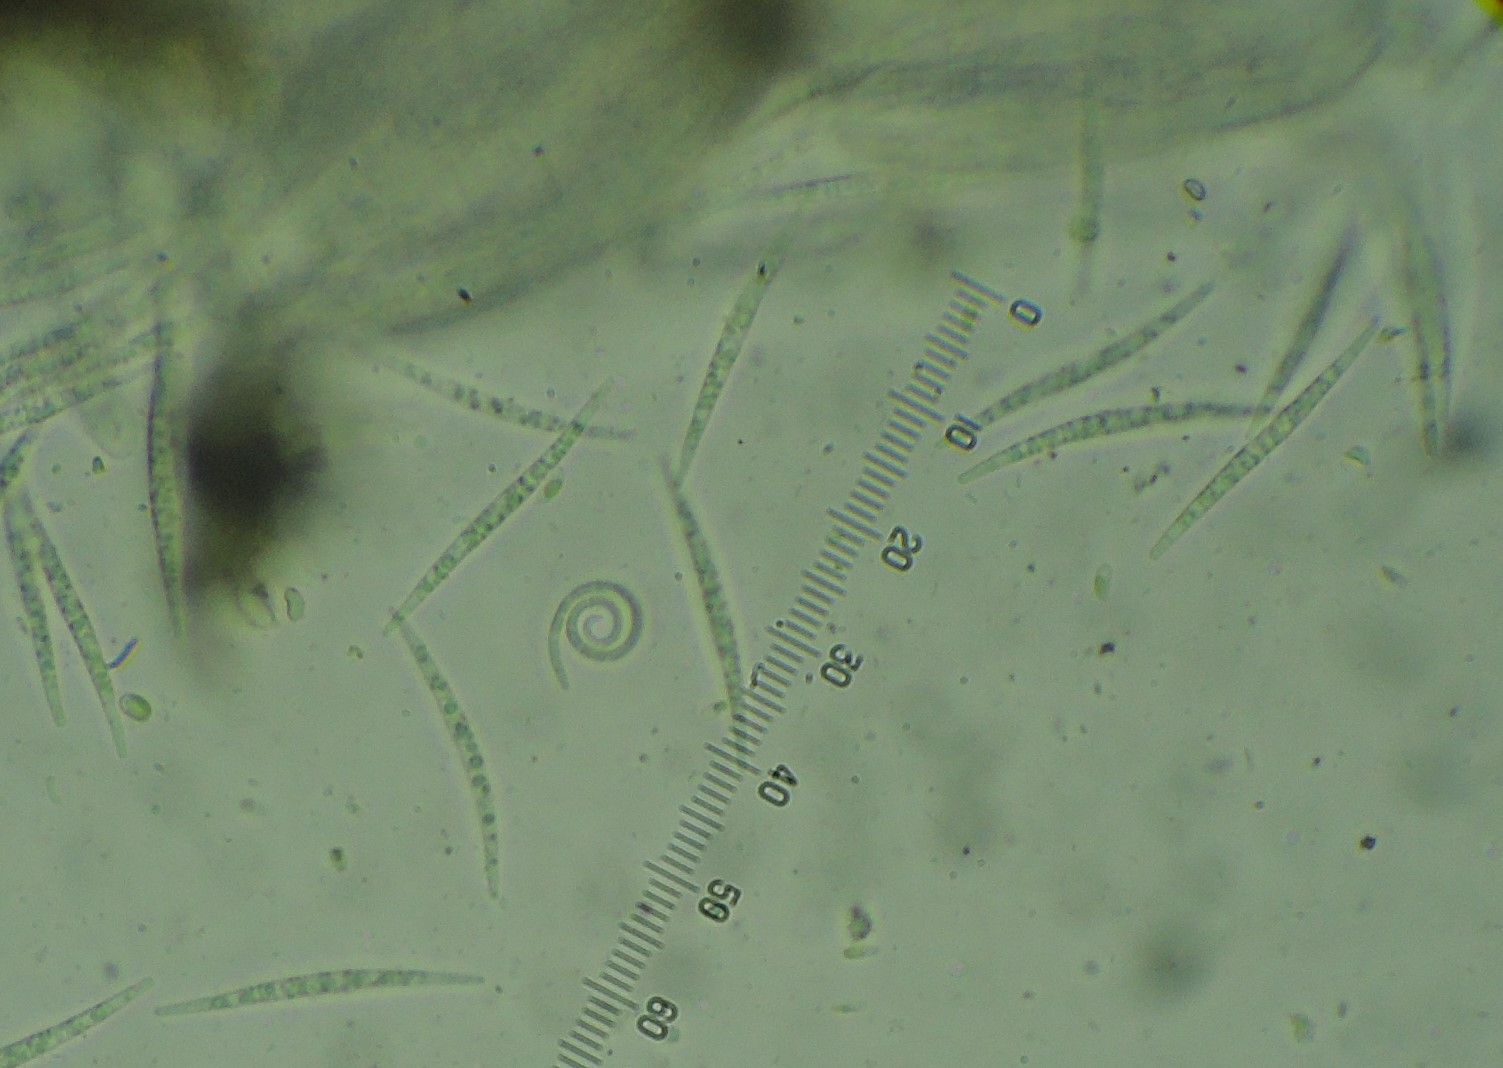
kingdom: Fungi
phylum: Ascomycota
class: Dothideomycetes
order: Tubeufiales
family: Tubeufiaceae
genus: Tubeufia
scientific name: Tubeufia cerea
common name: gulbrun tyksækkrukke
